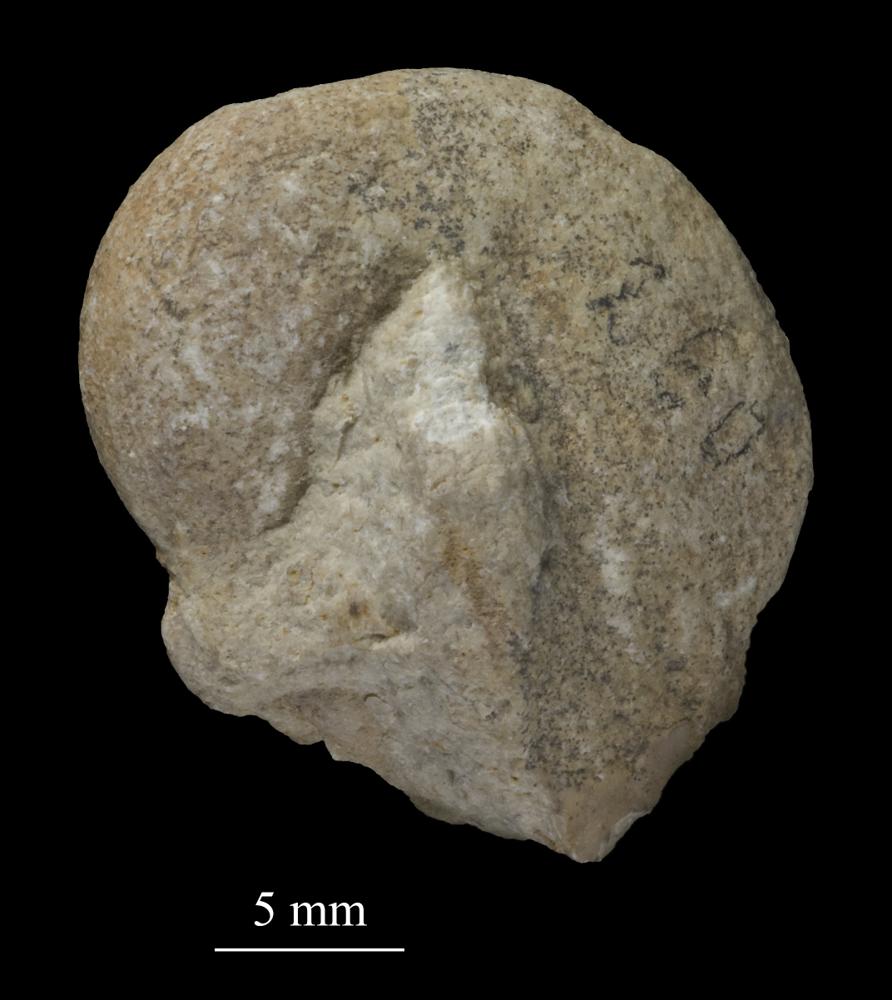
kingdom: Animalia
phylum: Mollusca
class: Gastropoda
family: Bellerophontidae
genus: Bellerophon
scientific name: Bellerophon
